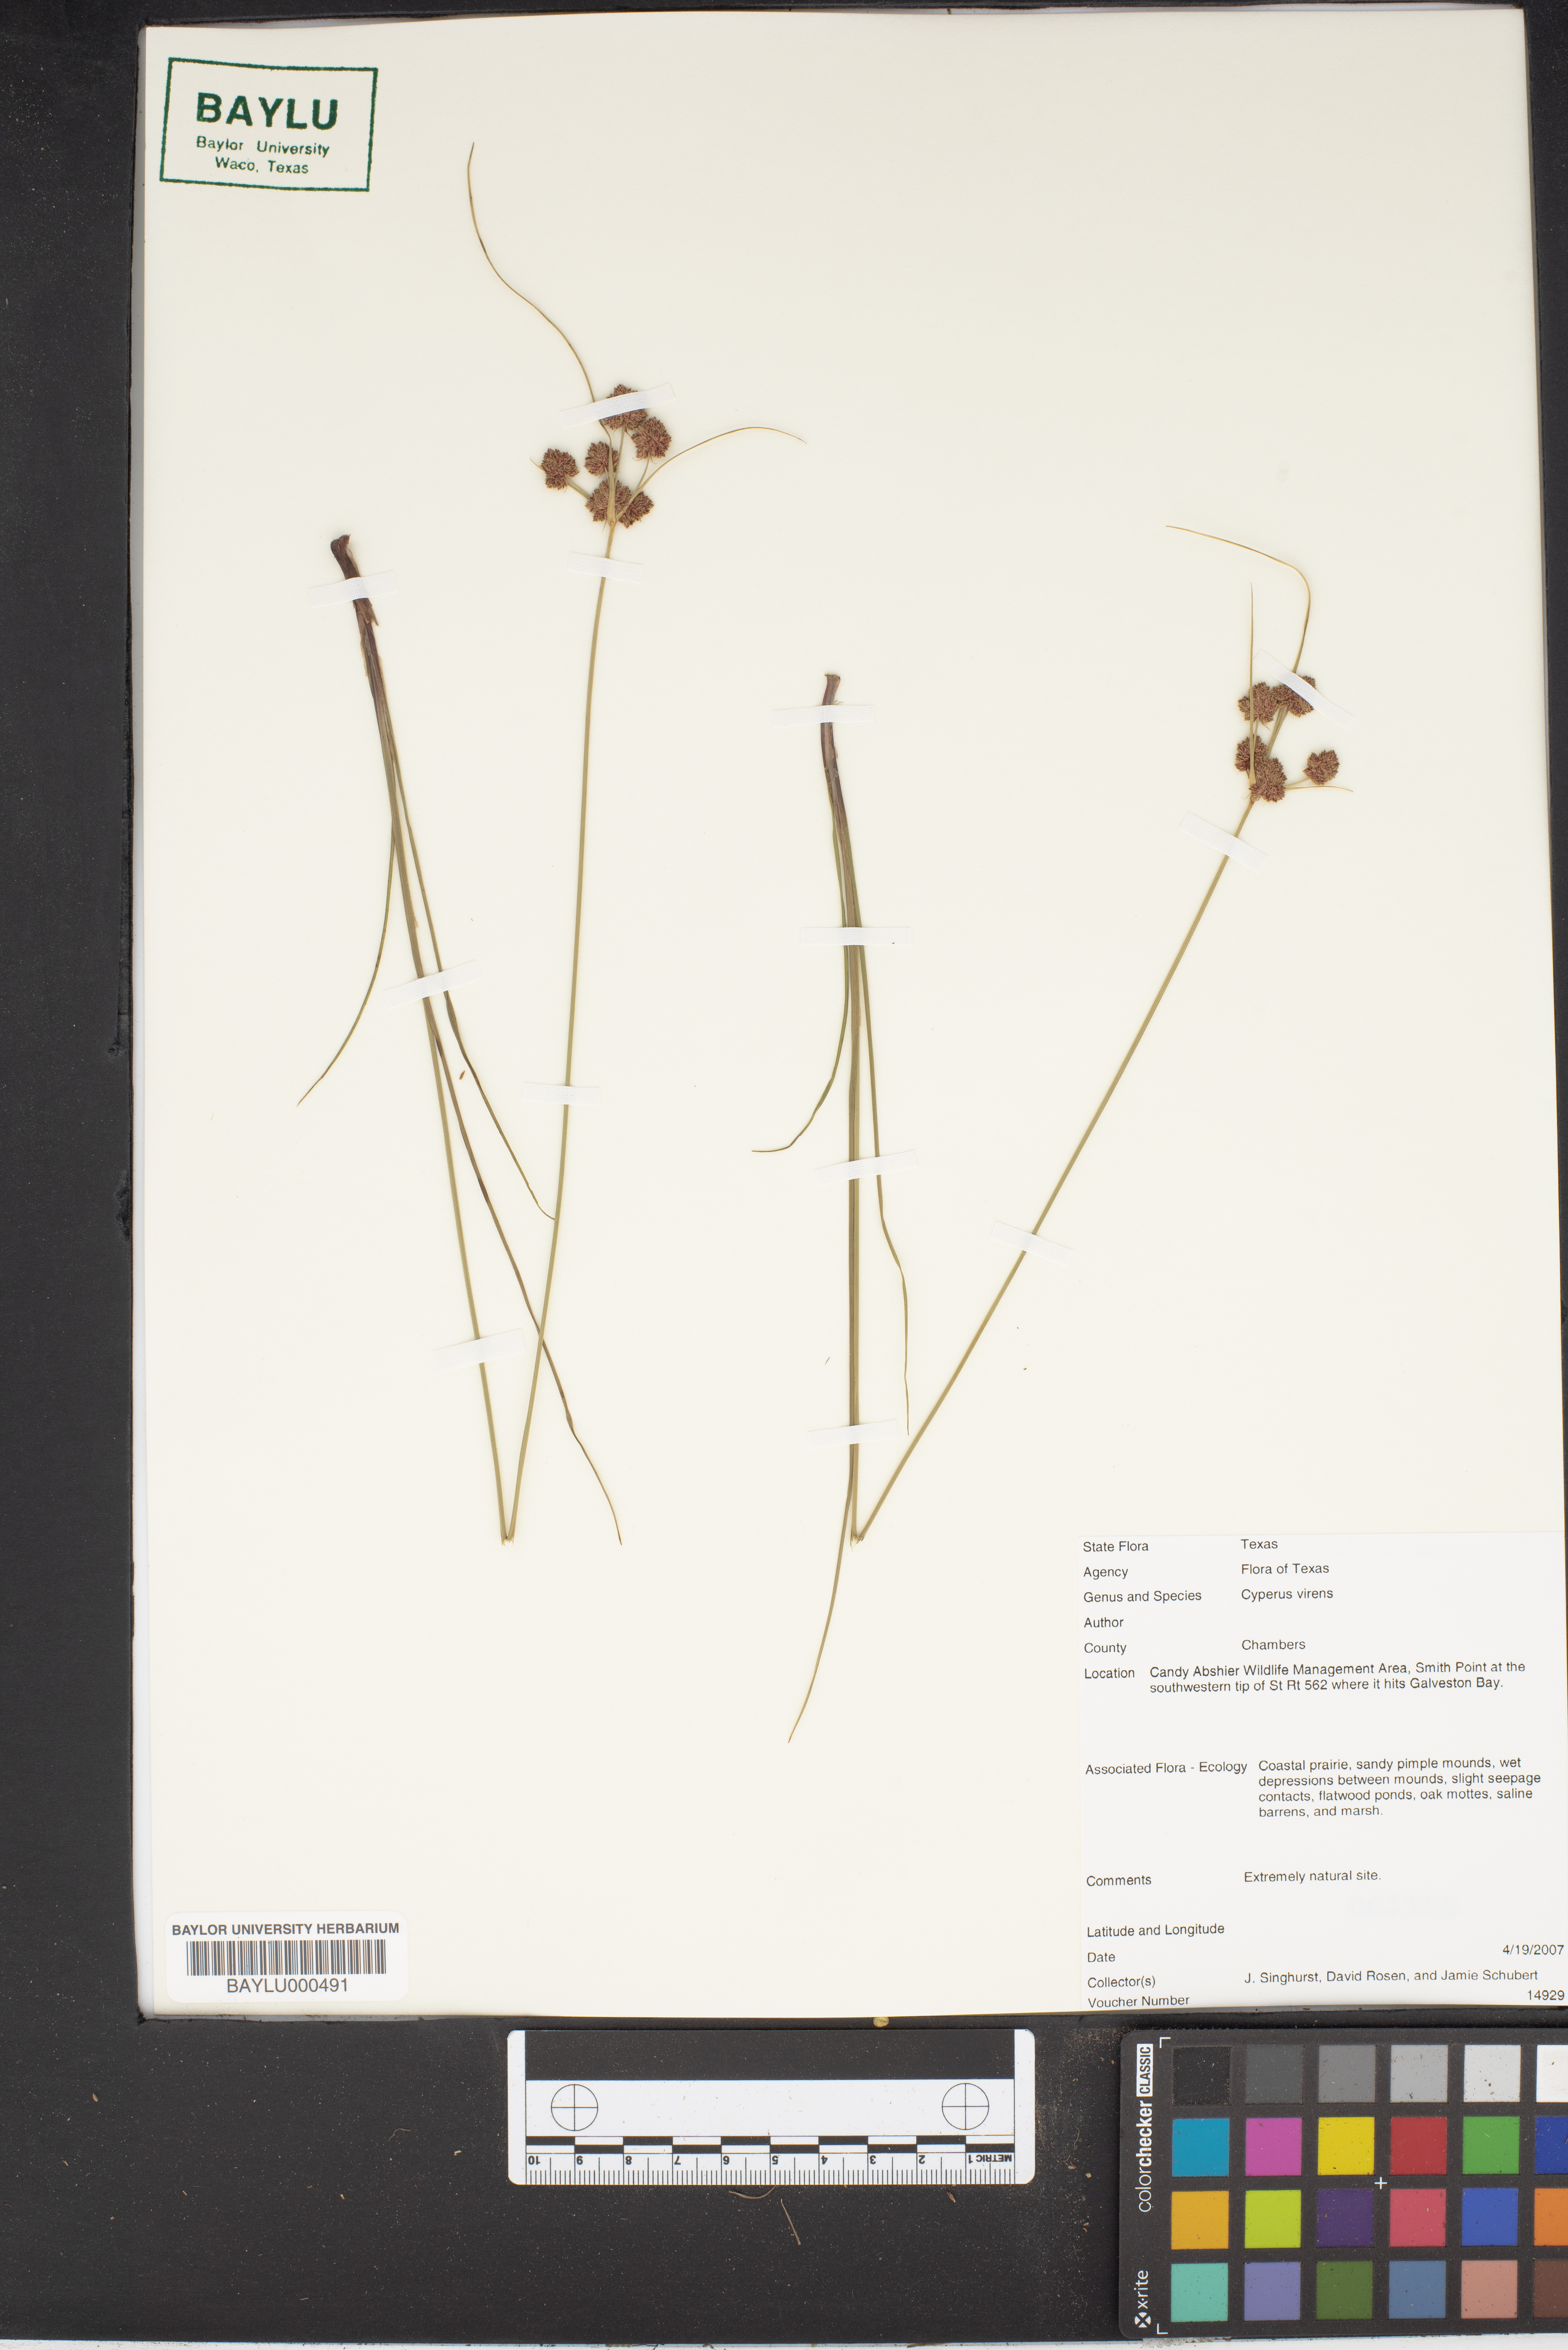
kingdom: Plantae
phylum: Tracheophyta
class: Liliopsida
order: Poales
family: Cyperaceae
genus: Cyperus
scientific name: Cyperus virens
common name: Green flatsedge
